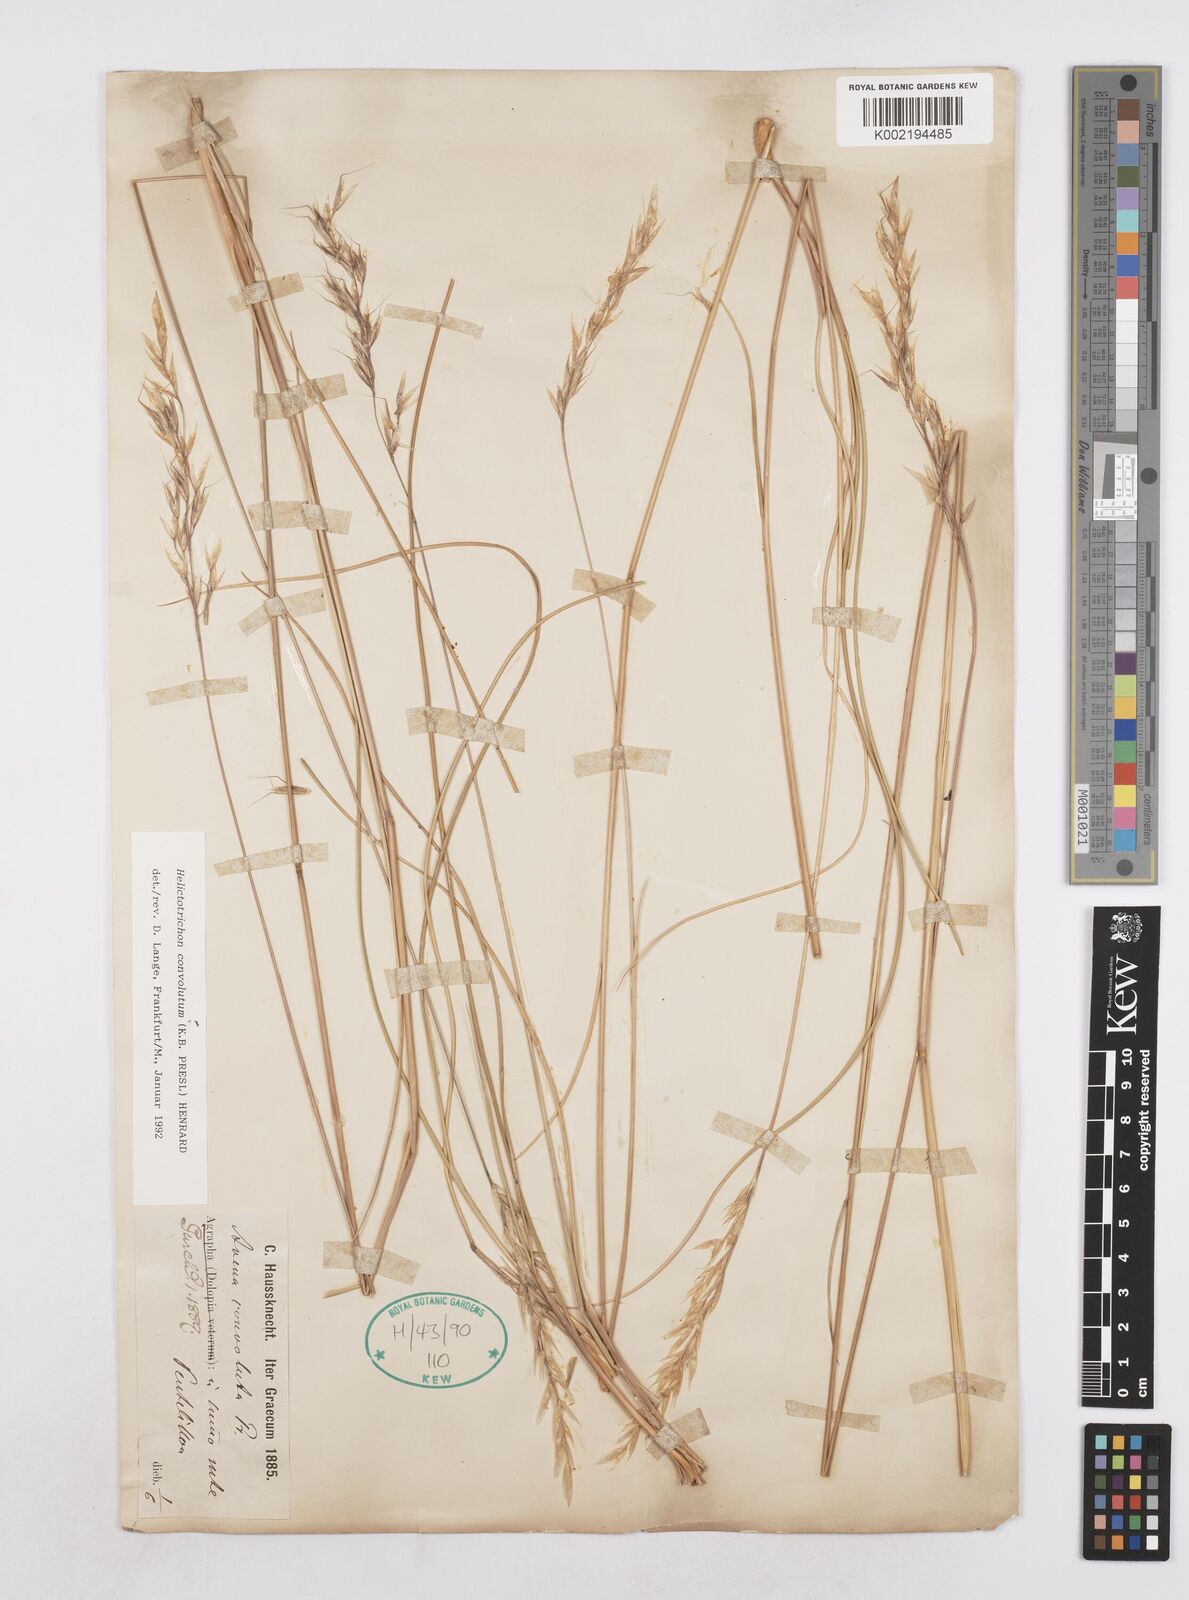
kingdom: Plantae
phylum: Tracheophyta
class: Liliopsida
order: Poales
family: Poaceae
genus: Helictotrichon
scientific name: Helictotrichon convolutum
